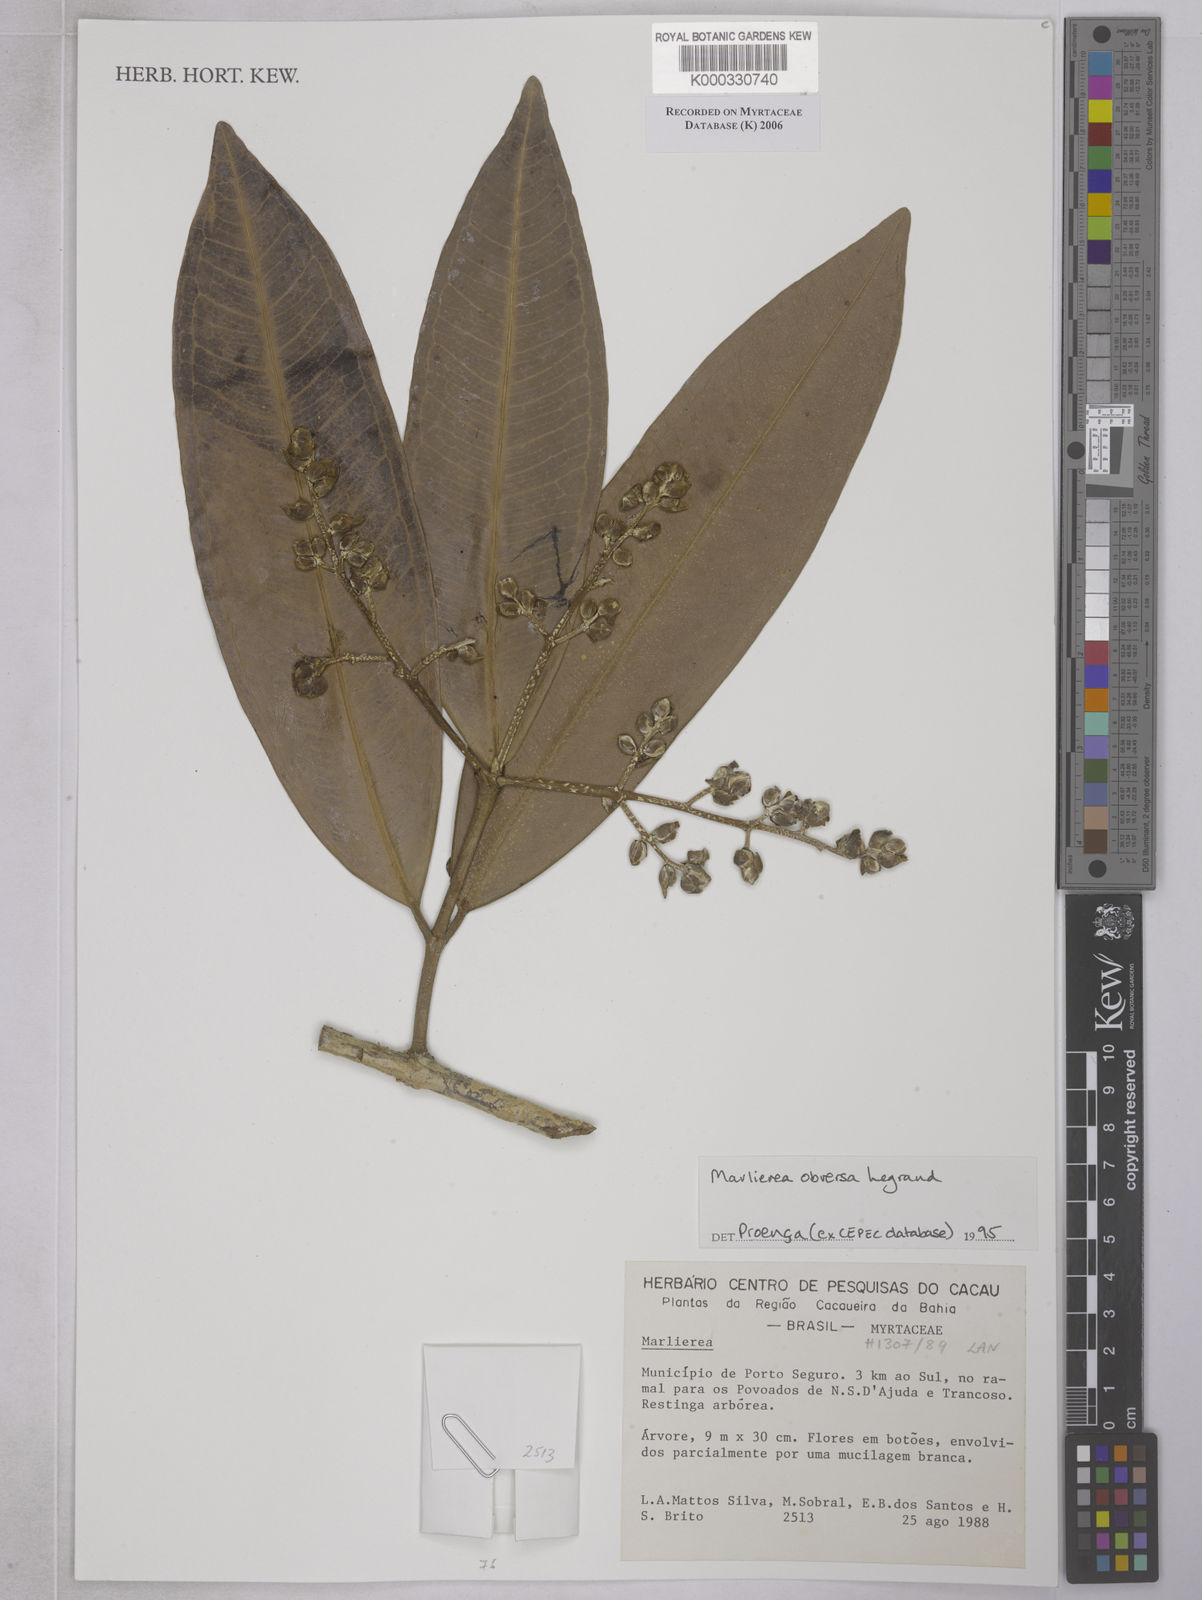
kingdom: Plantae
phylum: Tracheophyta
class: Magnoliopsida
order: Myrtales
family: Myrtaceae
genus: Marlierea
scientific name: Marlierea
